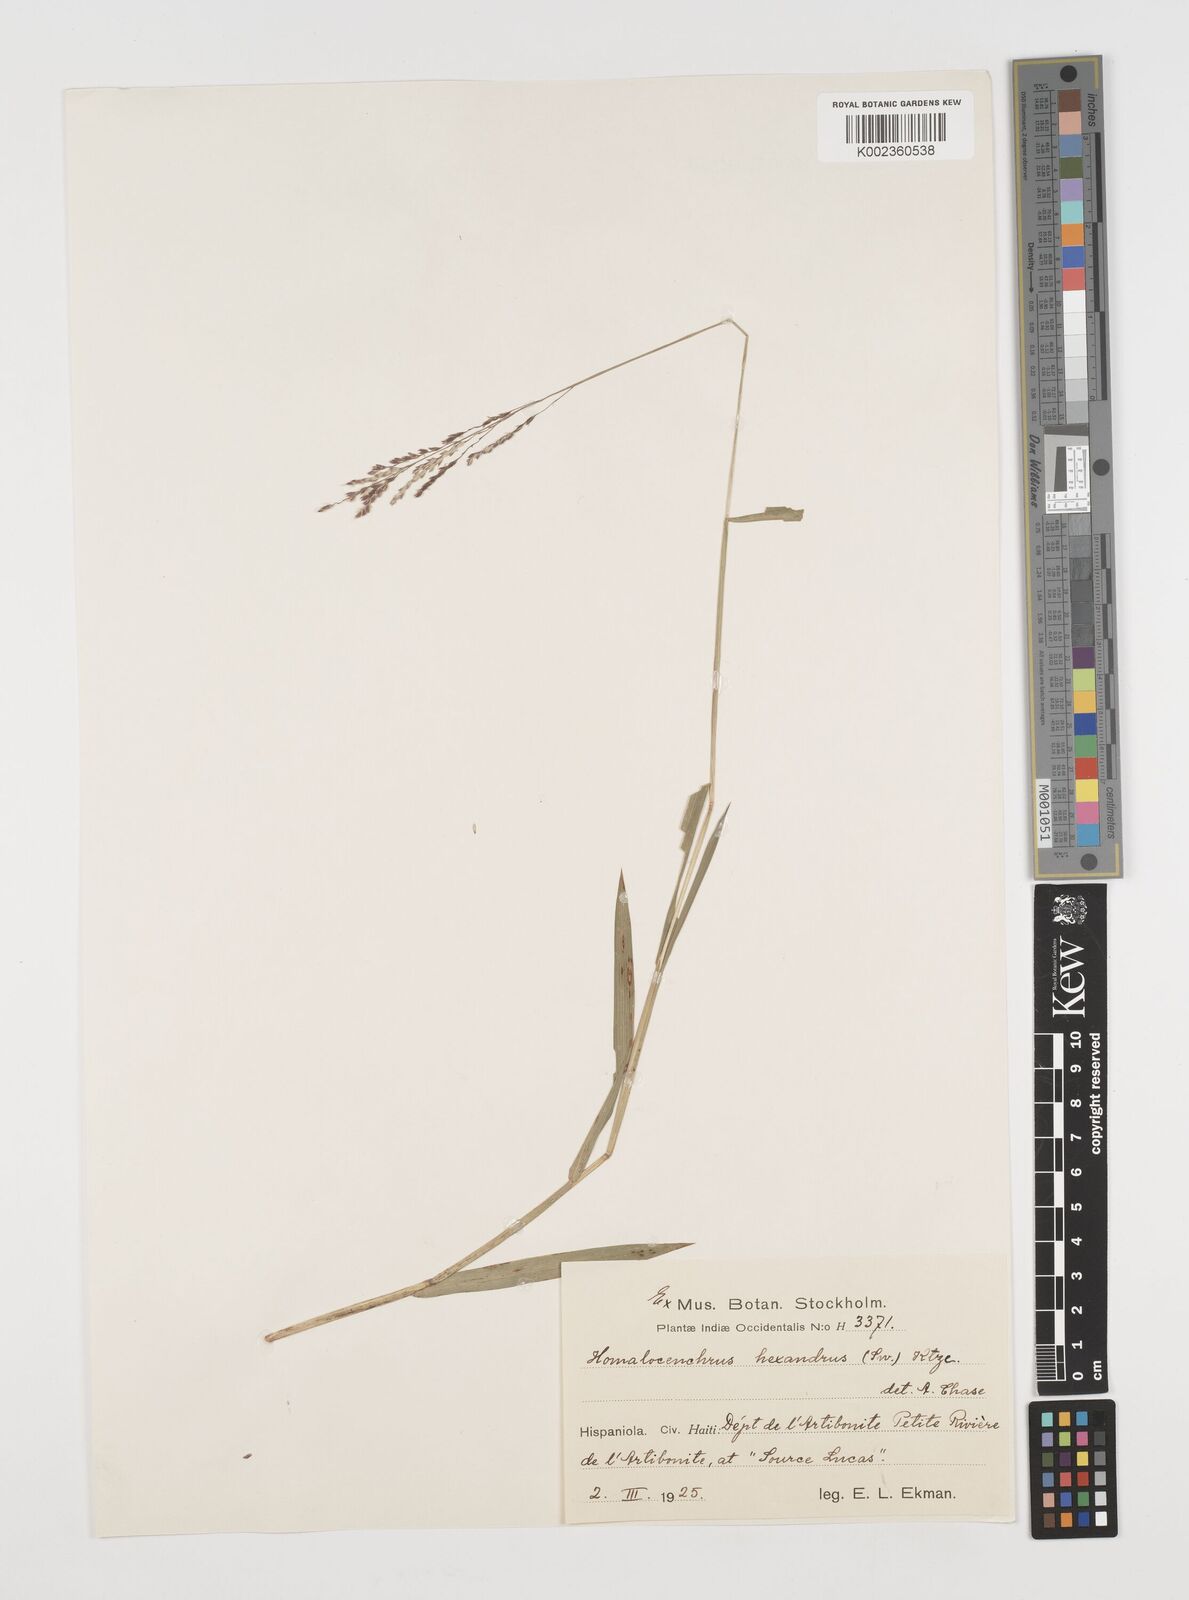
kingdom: Plantae
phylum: Tracheophyta
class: Liliopsida
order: Poales
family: Poaceae
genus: Leersia
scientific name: Leersia hexandra
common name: Southern cut grass
